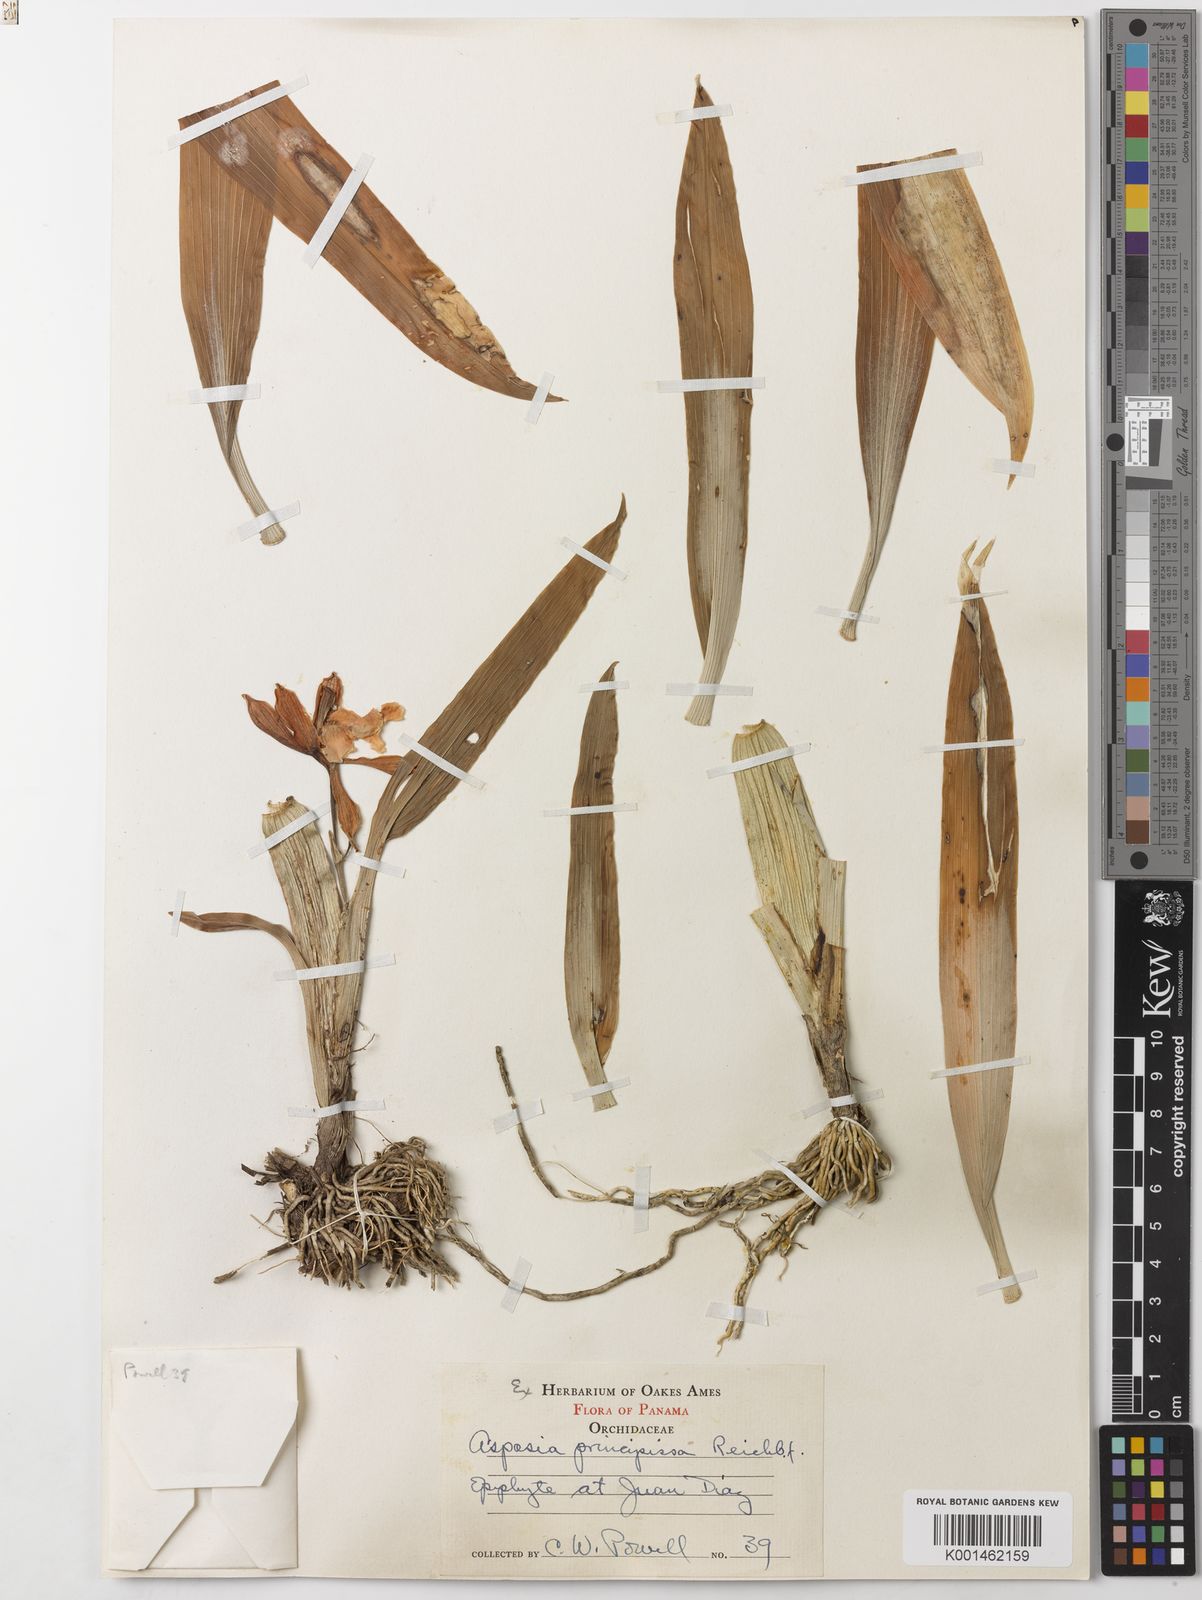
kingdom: Plantae
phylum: Tracheophyta
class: Liliopsida
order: Asparagales
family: Orchidaceae
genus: Aspasia
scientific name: Aspasia epidendroides
